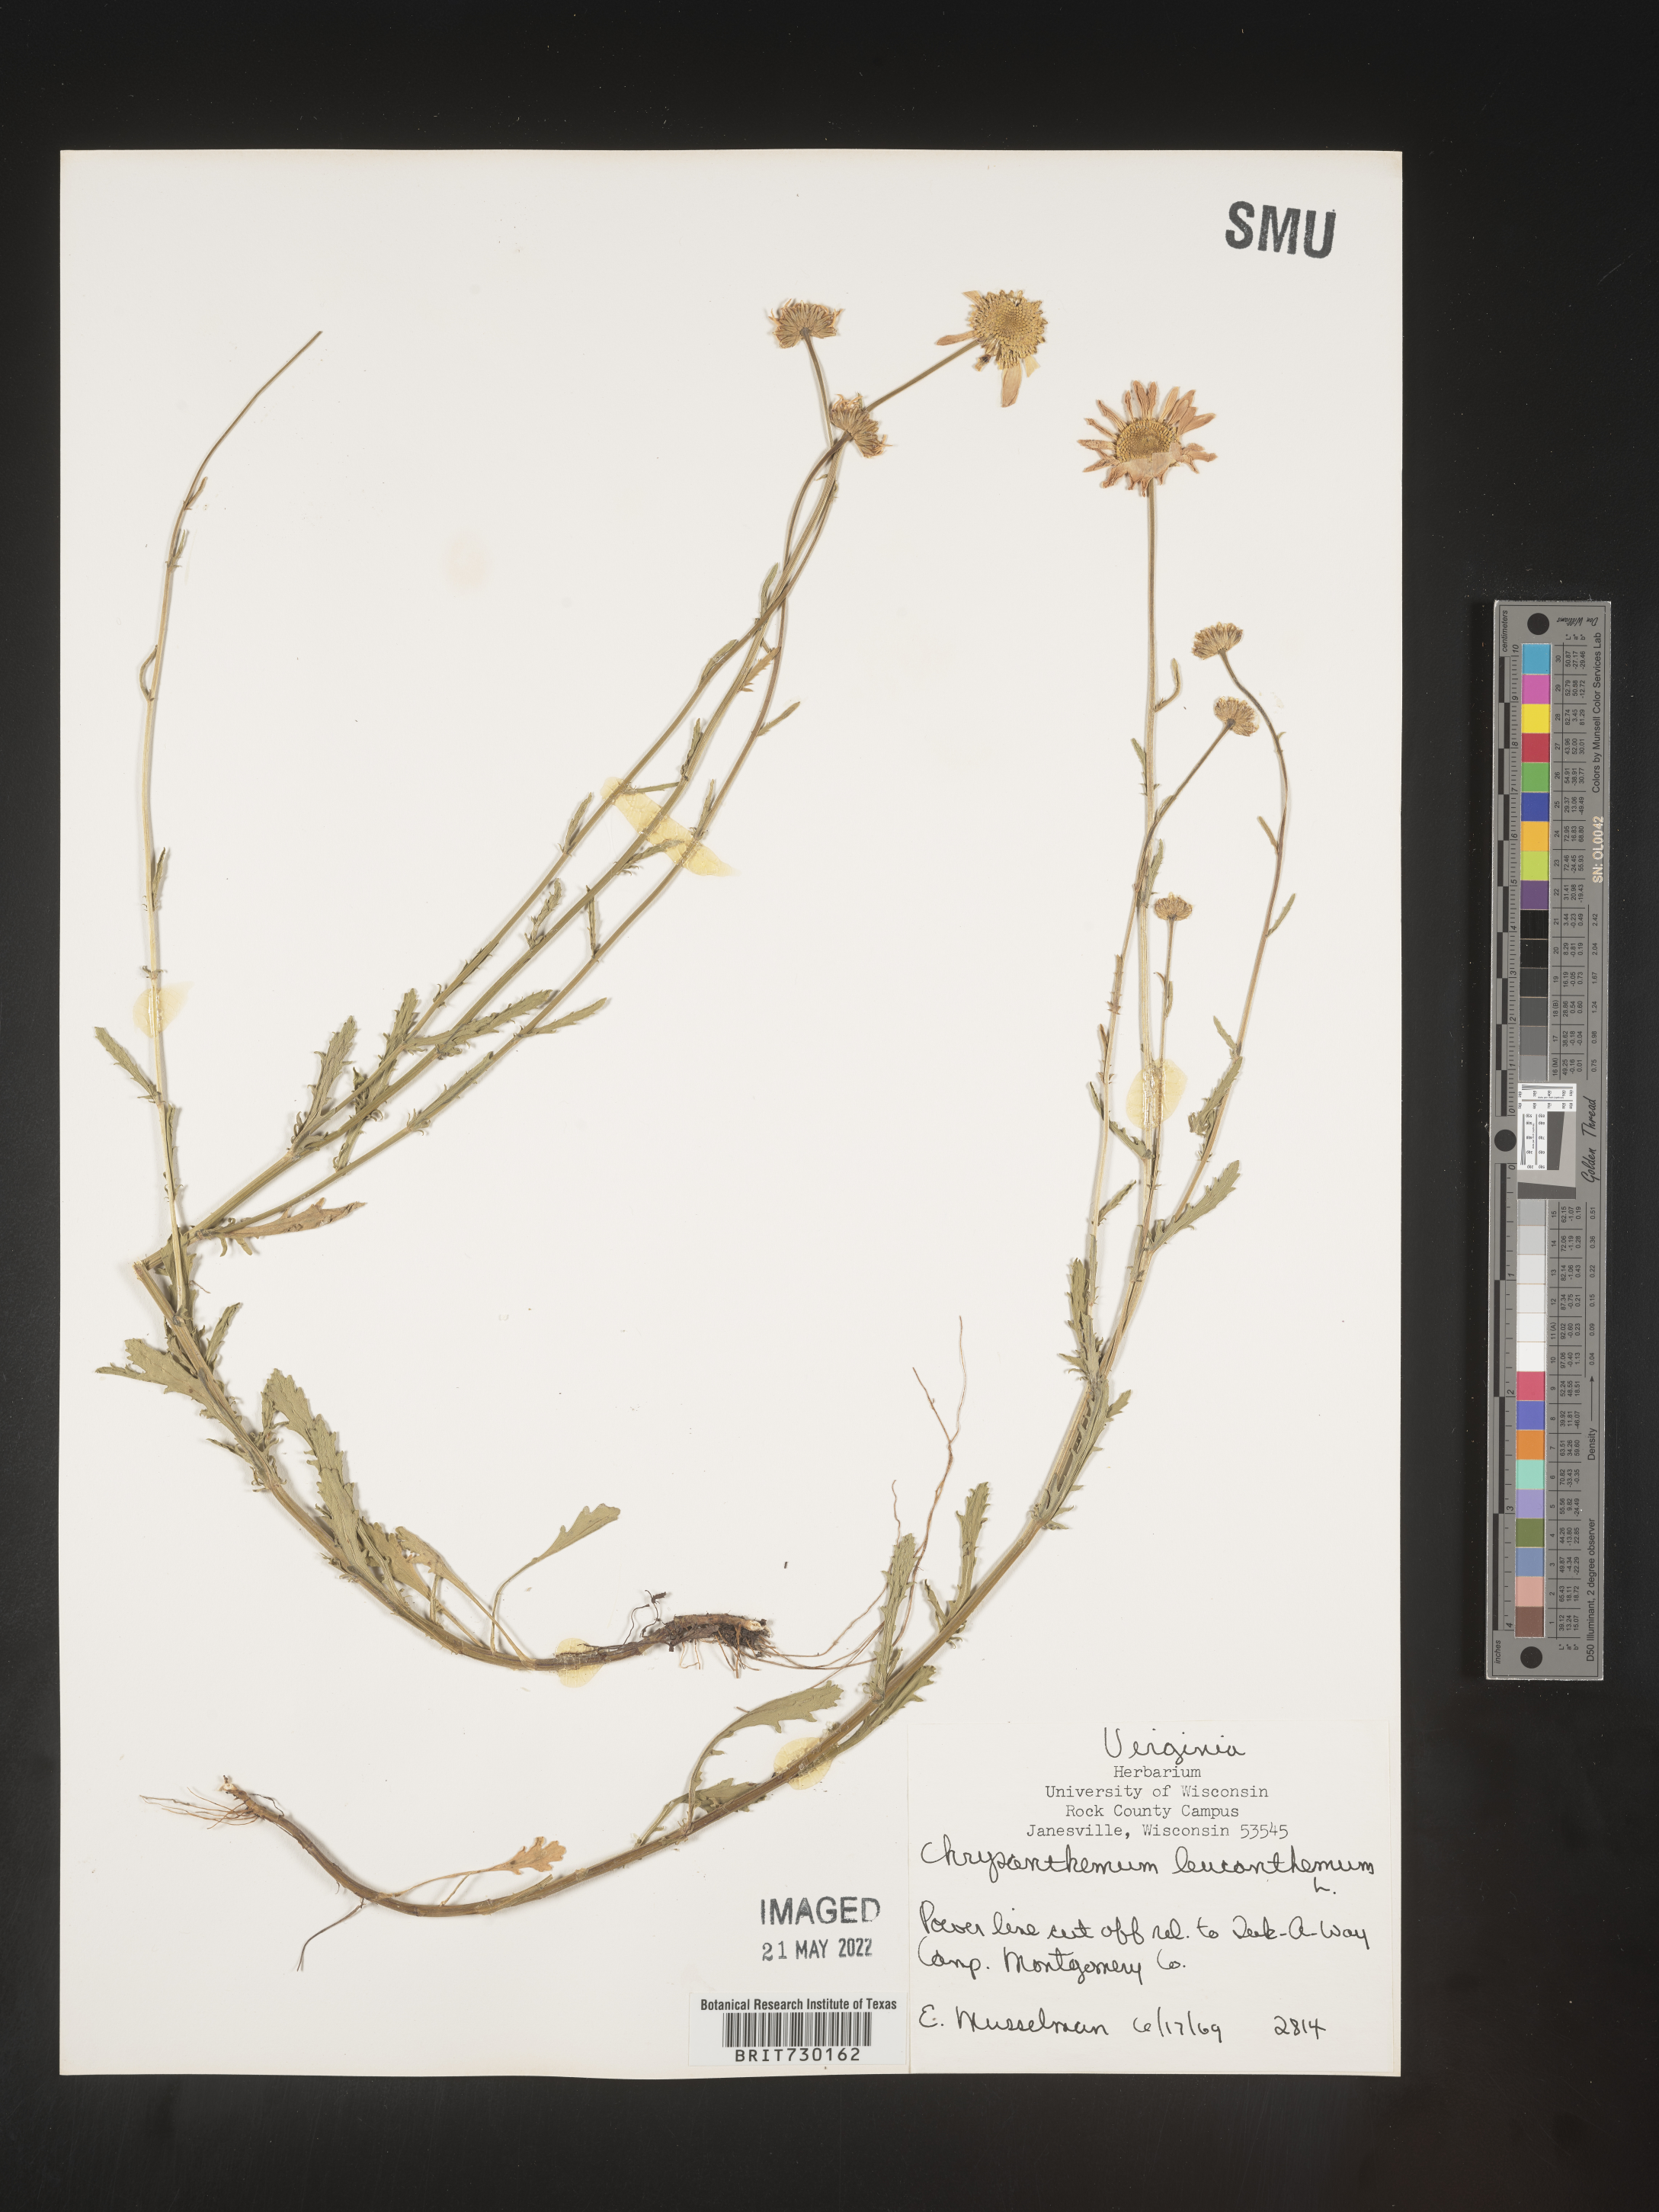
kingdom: Plantae
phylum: Tracheophyta
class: Magnoliopsida
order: Asterales
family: Asteraceae
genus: Leucanthemum
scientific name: Leucanthemum vulgare
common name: Oxeye daisy
